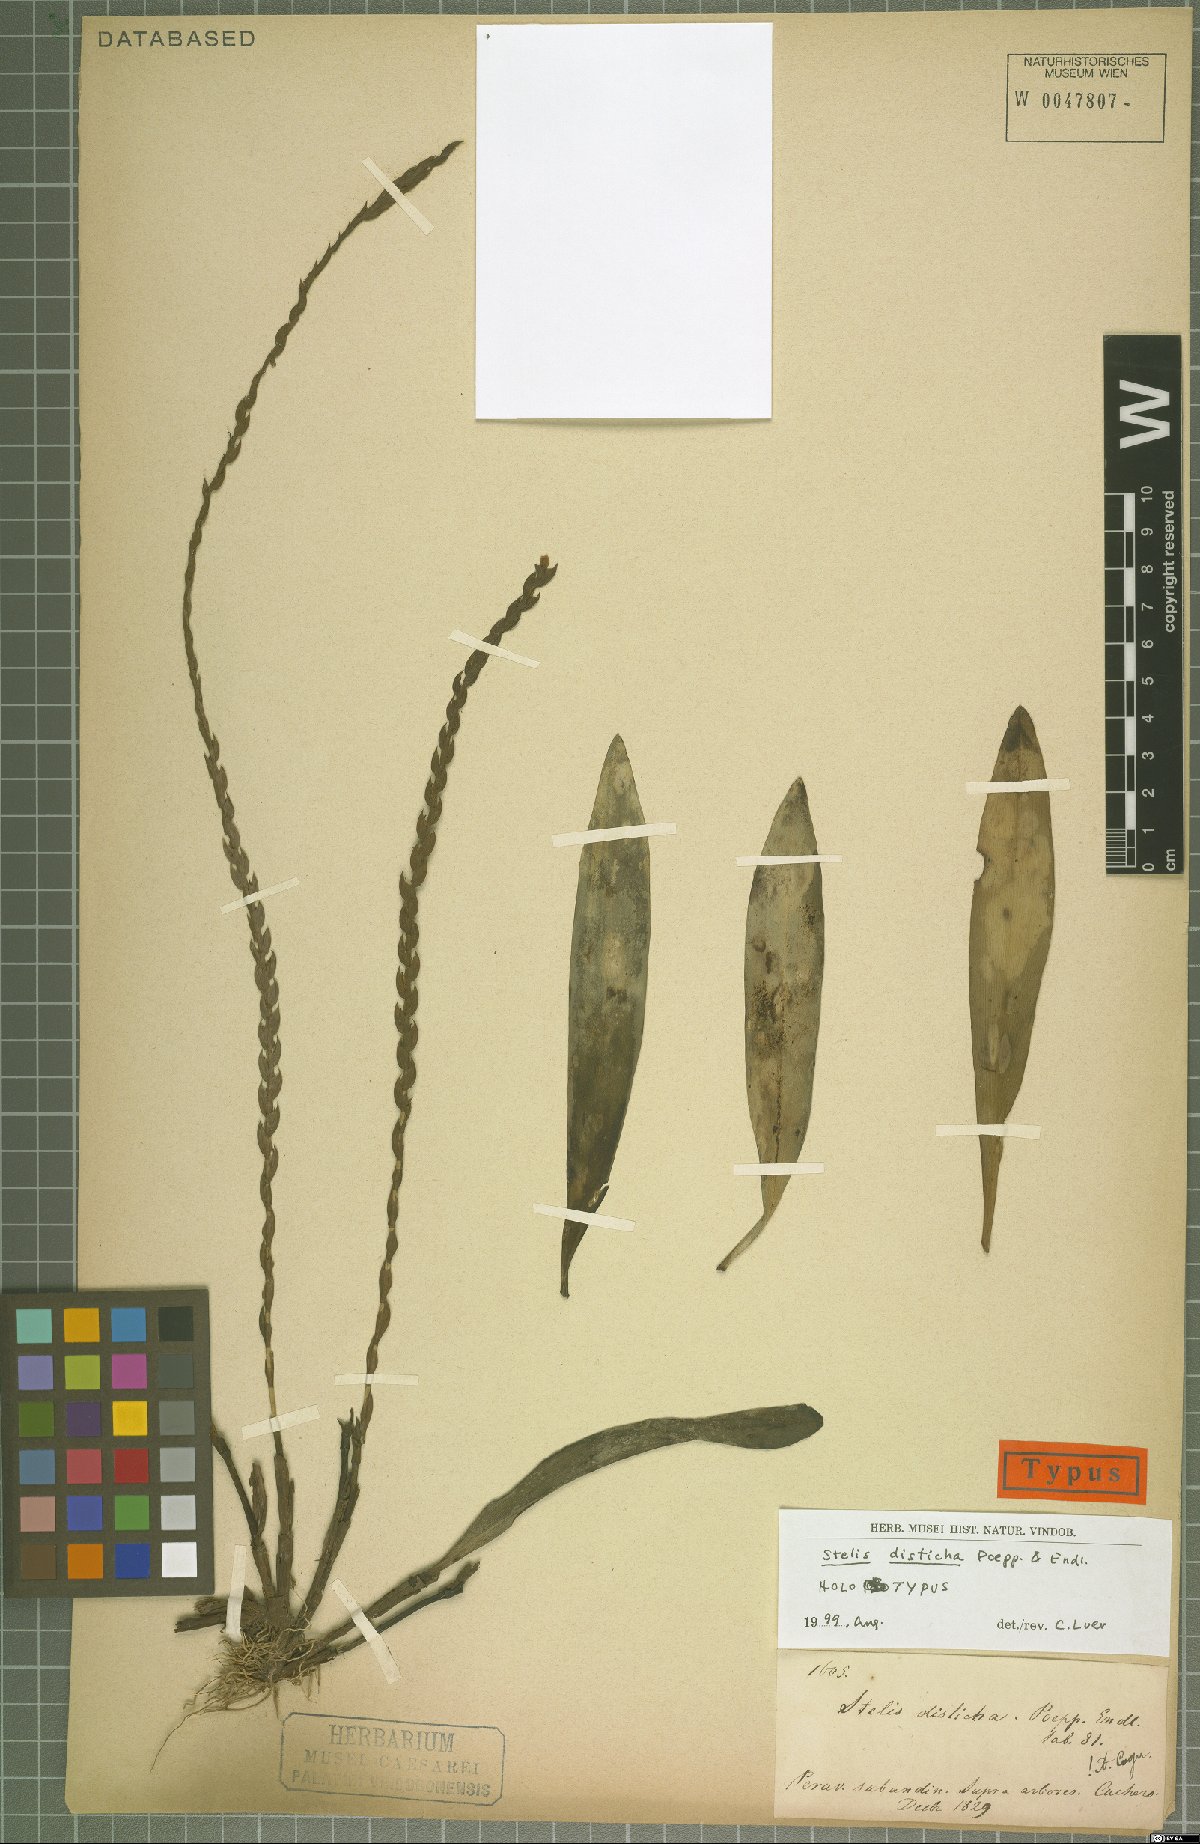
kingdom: Plantae
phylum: Tracheophyta
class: Liliopsida
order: Asparagales
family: Orchidaceae
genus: Stelis
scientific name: Stelis disticha
